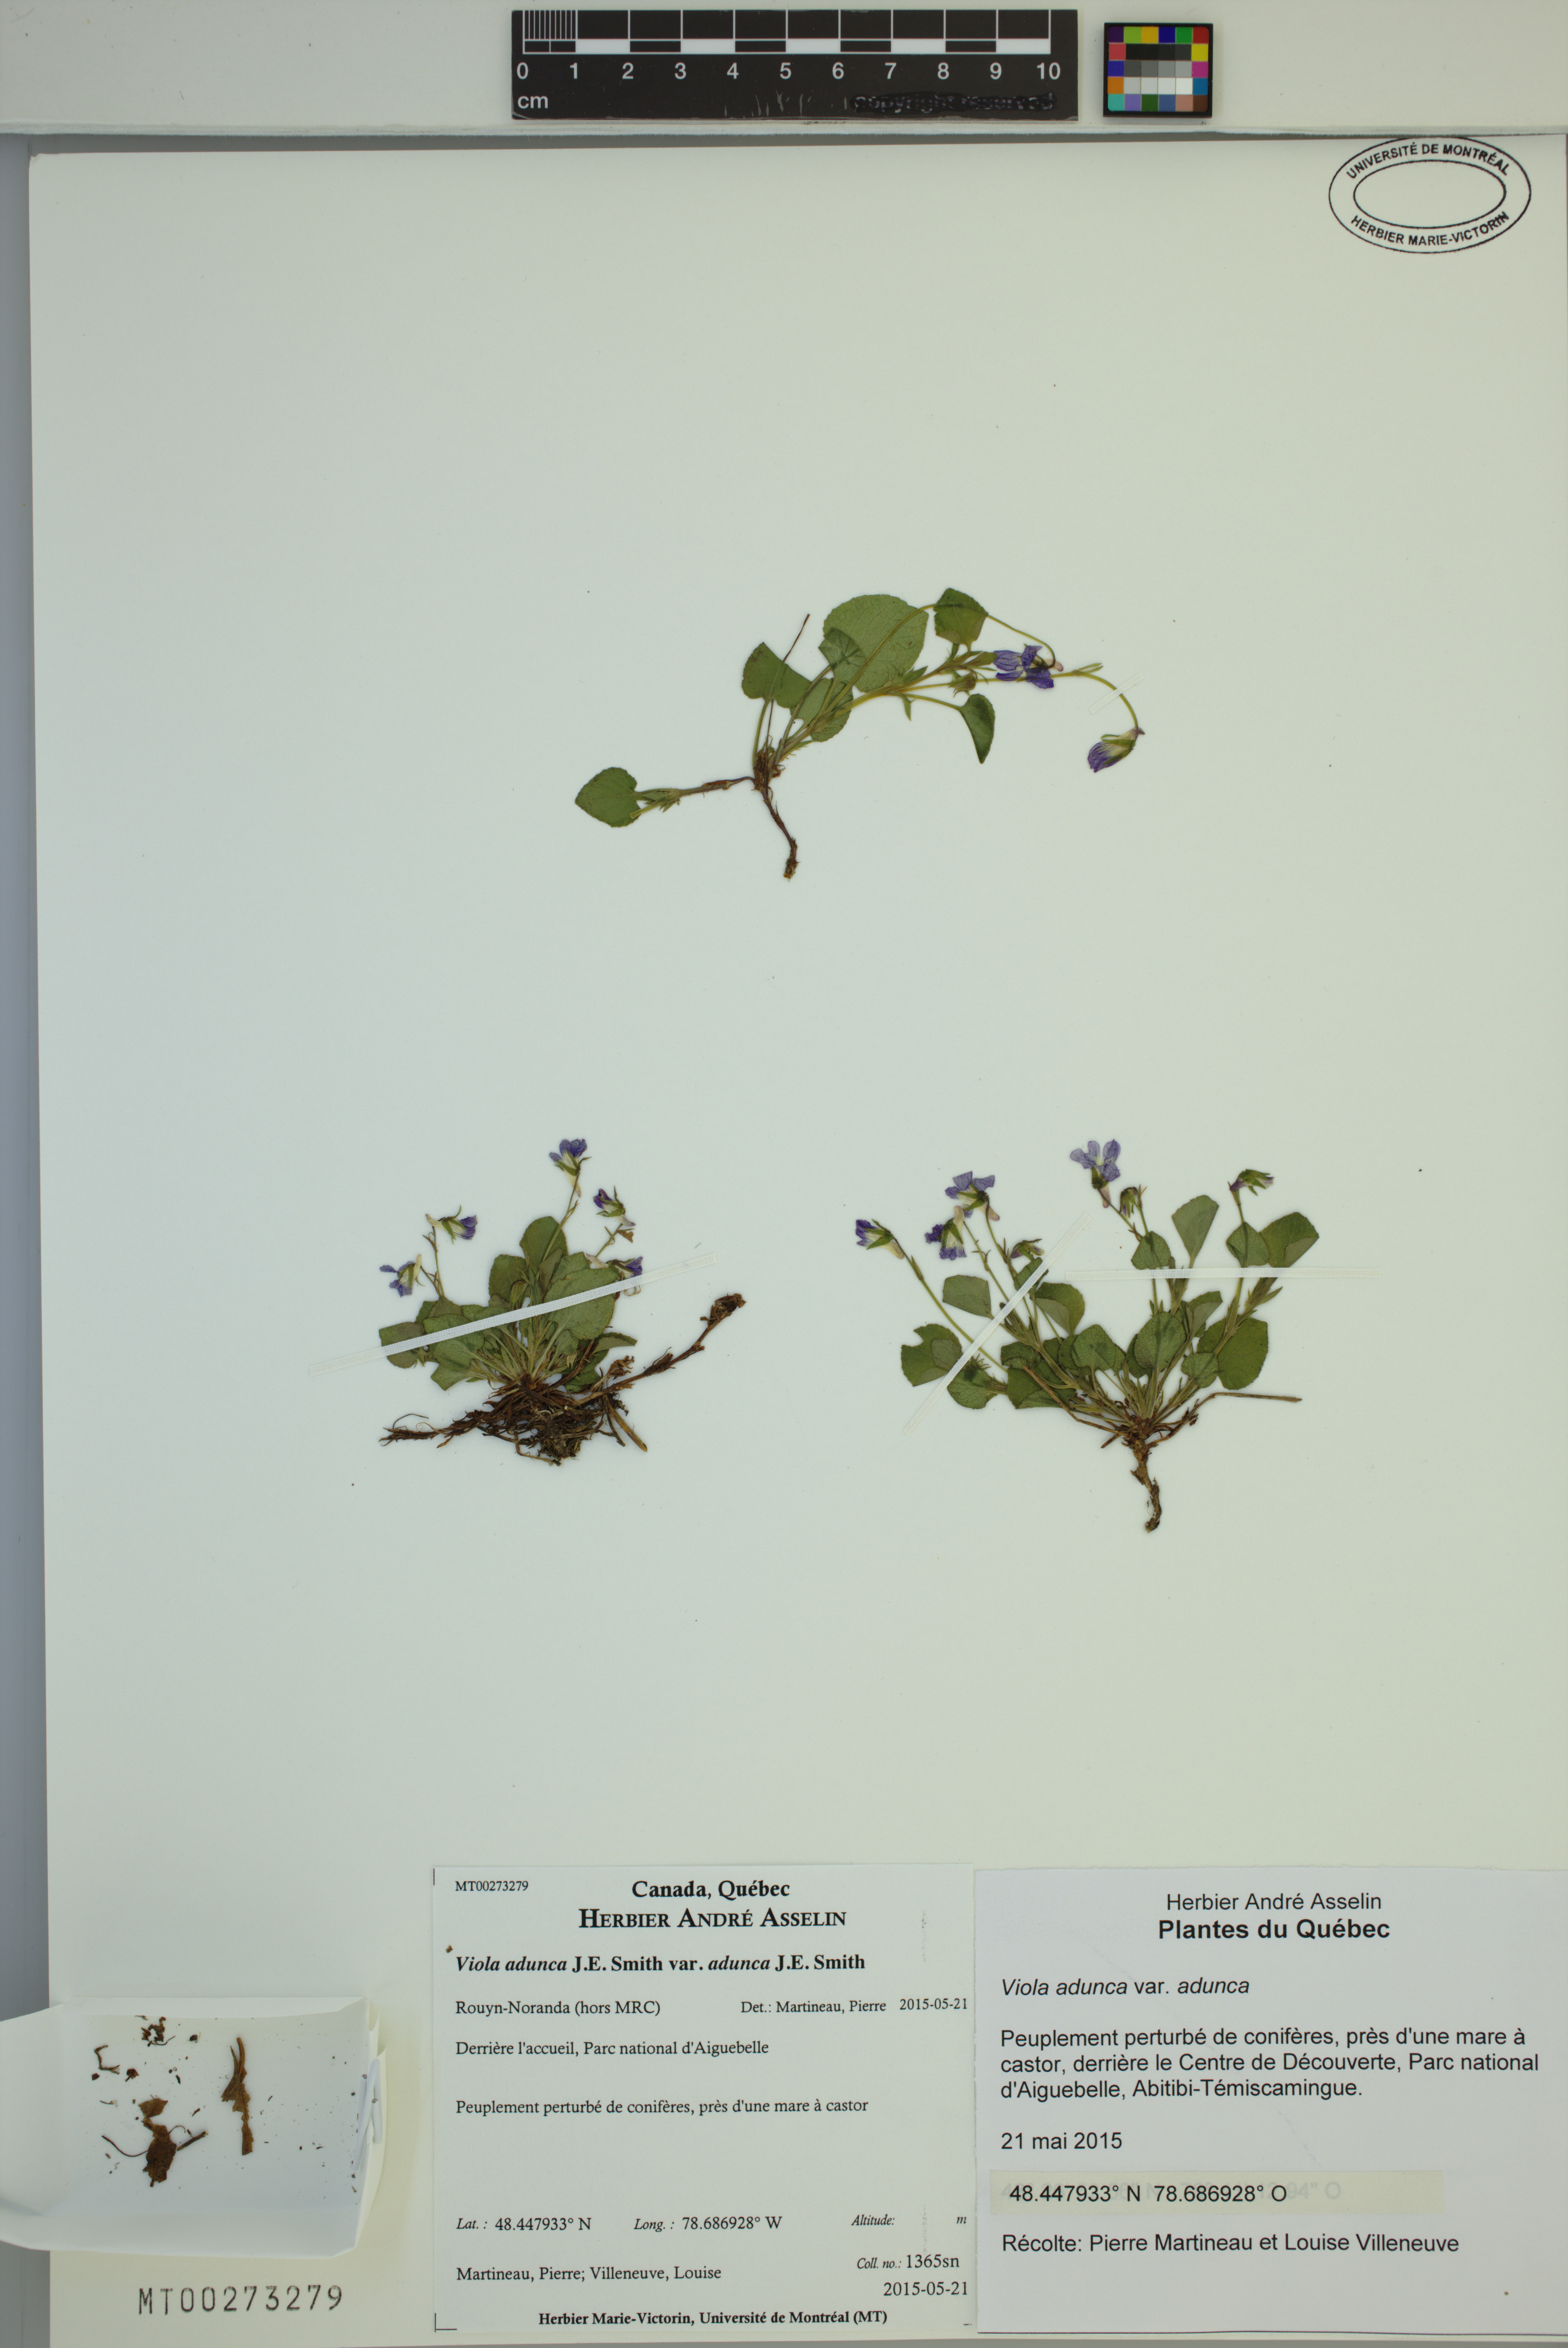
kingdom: Plantae
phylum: Tracheophyta
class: Magnoliopsida
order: Malpighiales
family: Violaceae
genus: Viola
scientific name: Viola adunca
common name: Sand violet
